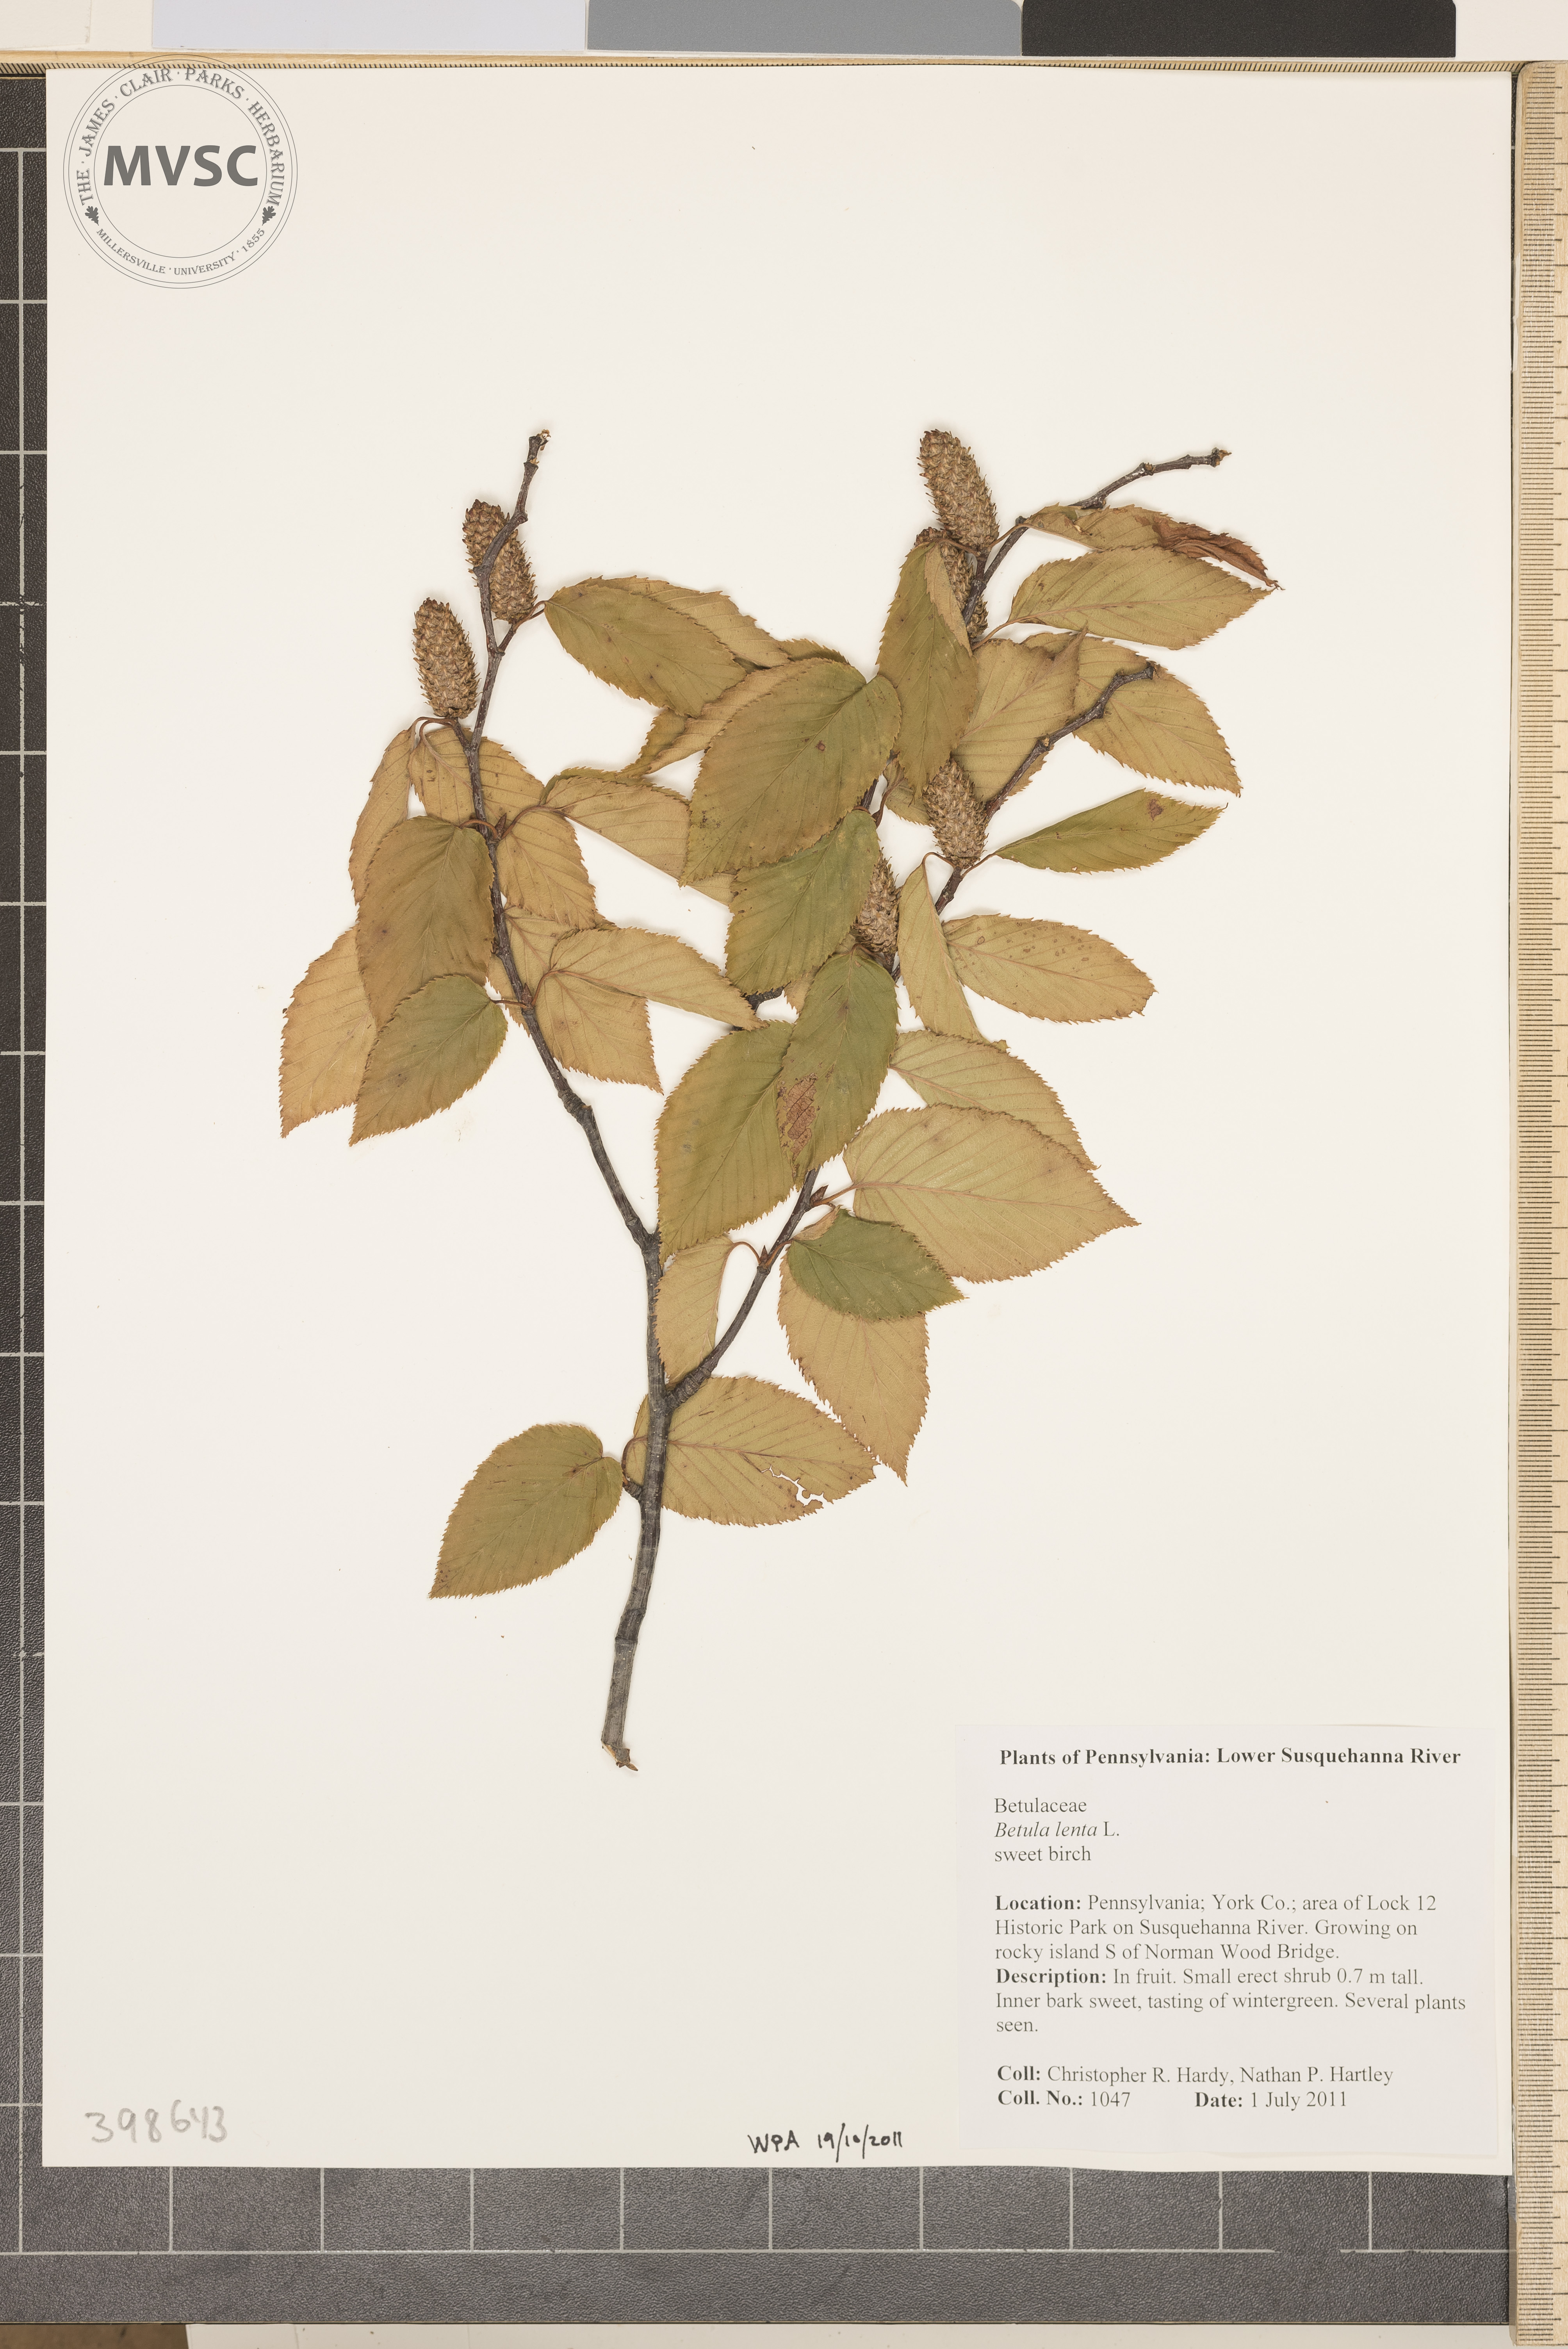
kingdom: Plantae
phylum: Tracheophyta
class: Magnoliopsida
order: Fagales
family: Betulaceae
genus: Betula
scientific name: Betula lenta
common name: Black birch
